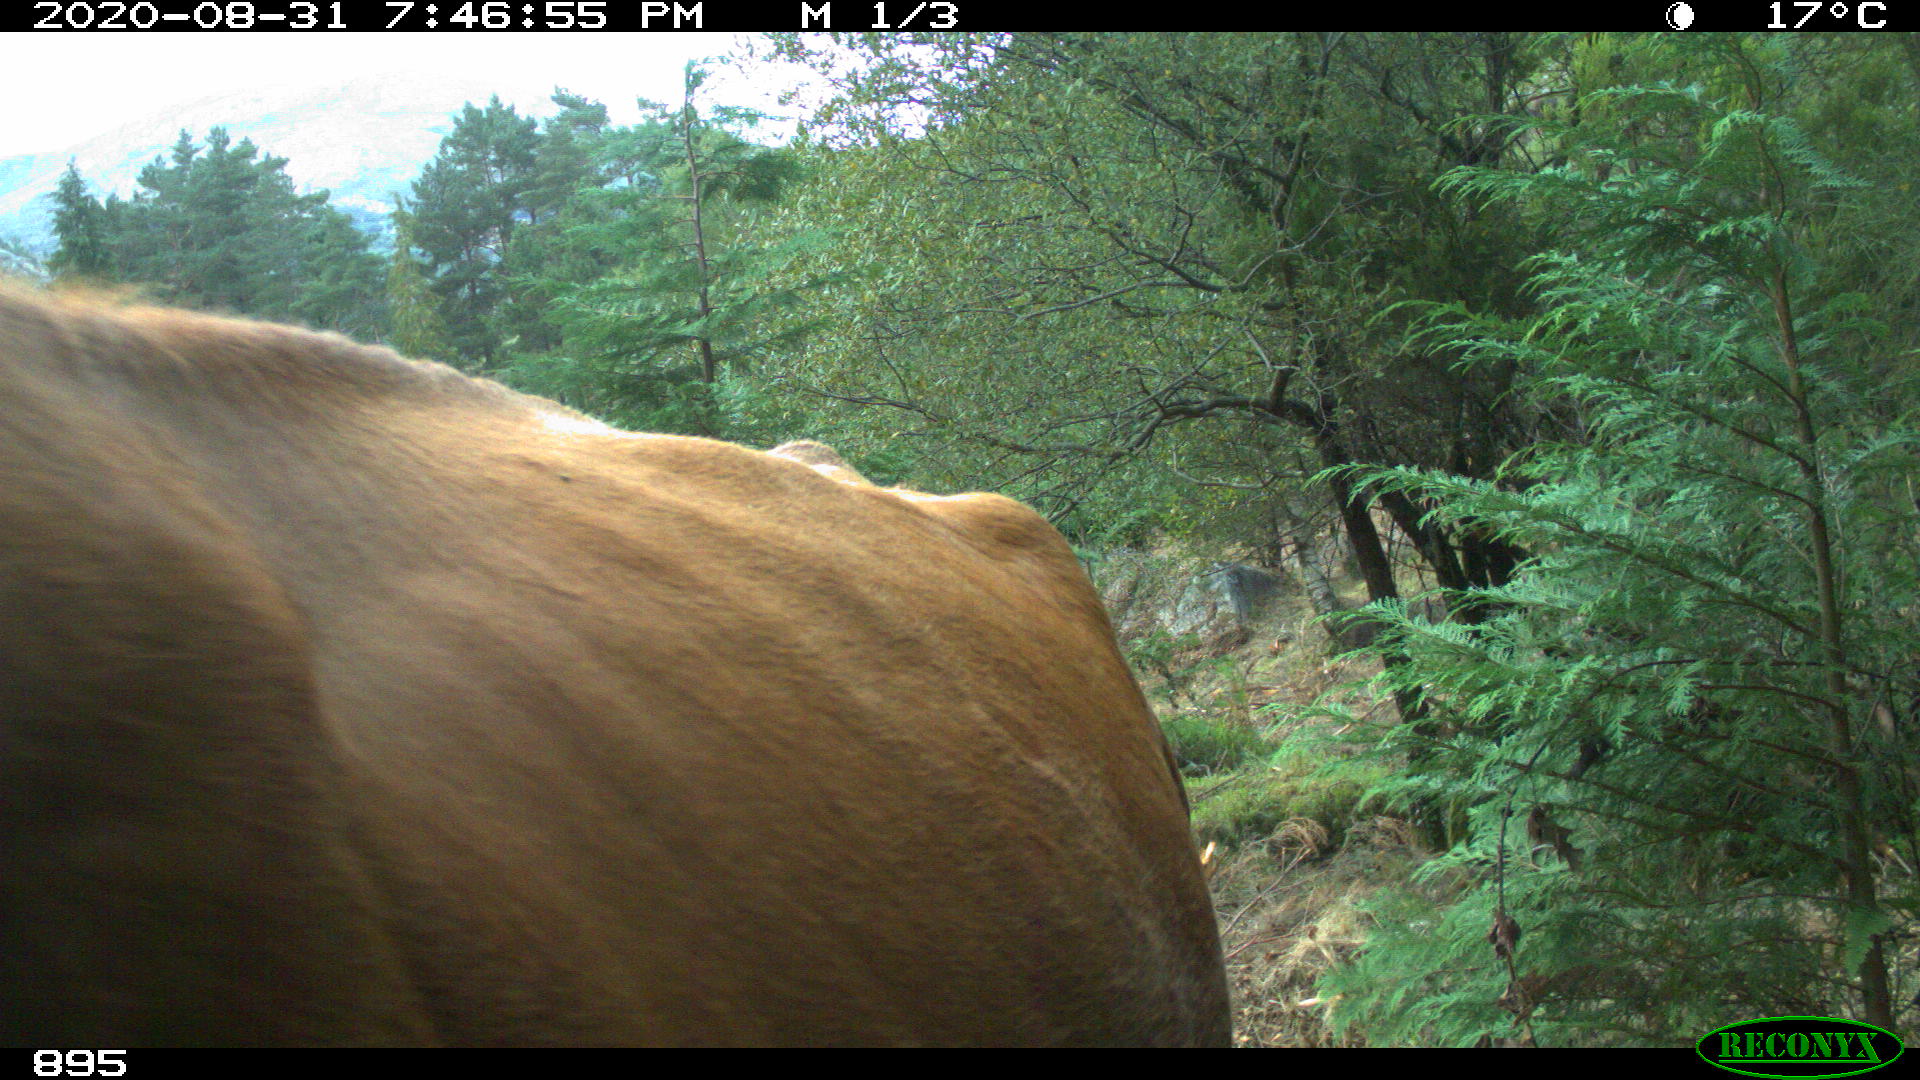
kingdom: Animalia
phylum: Chordata
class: Mammalia
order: Artiodactyla
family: Bovidae
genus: Bos
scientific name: Bos taurus
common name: Domesticated cattle
